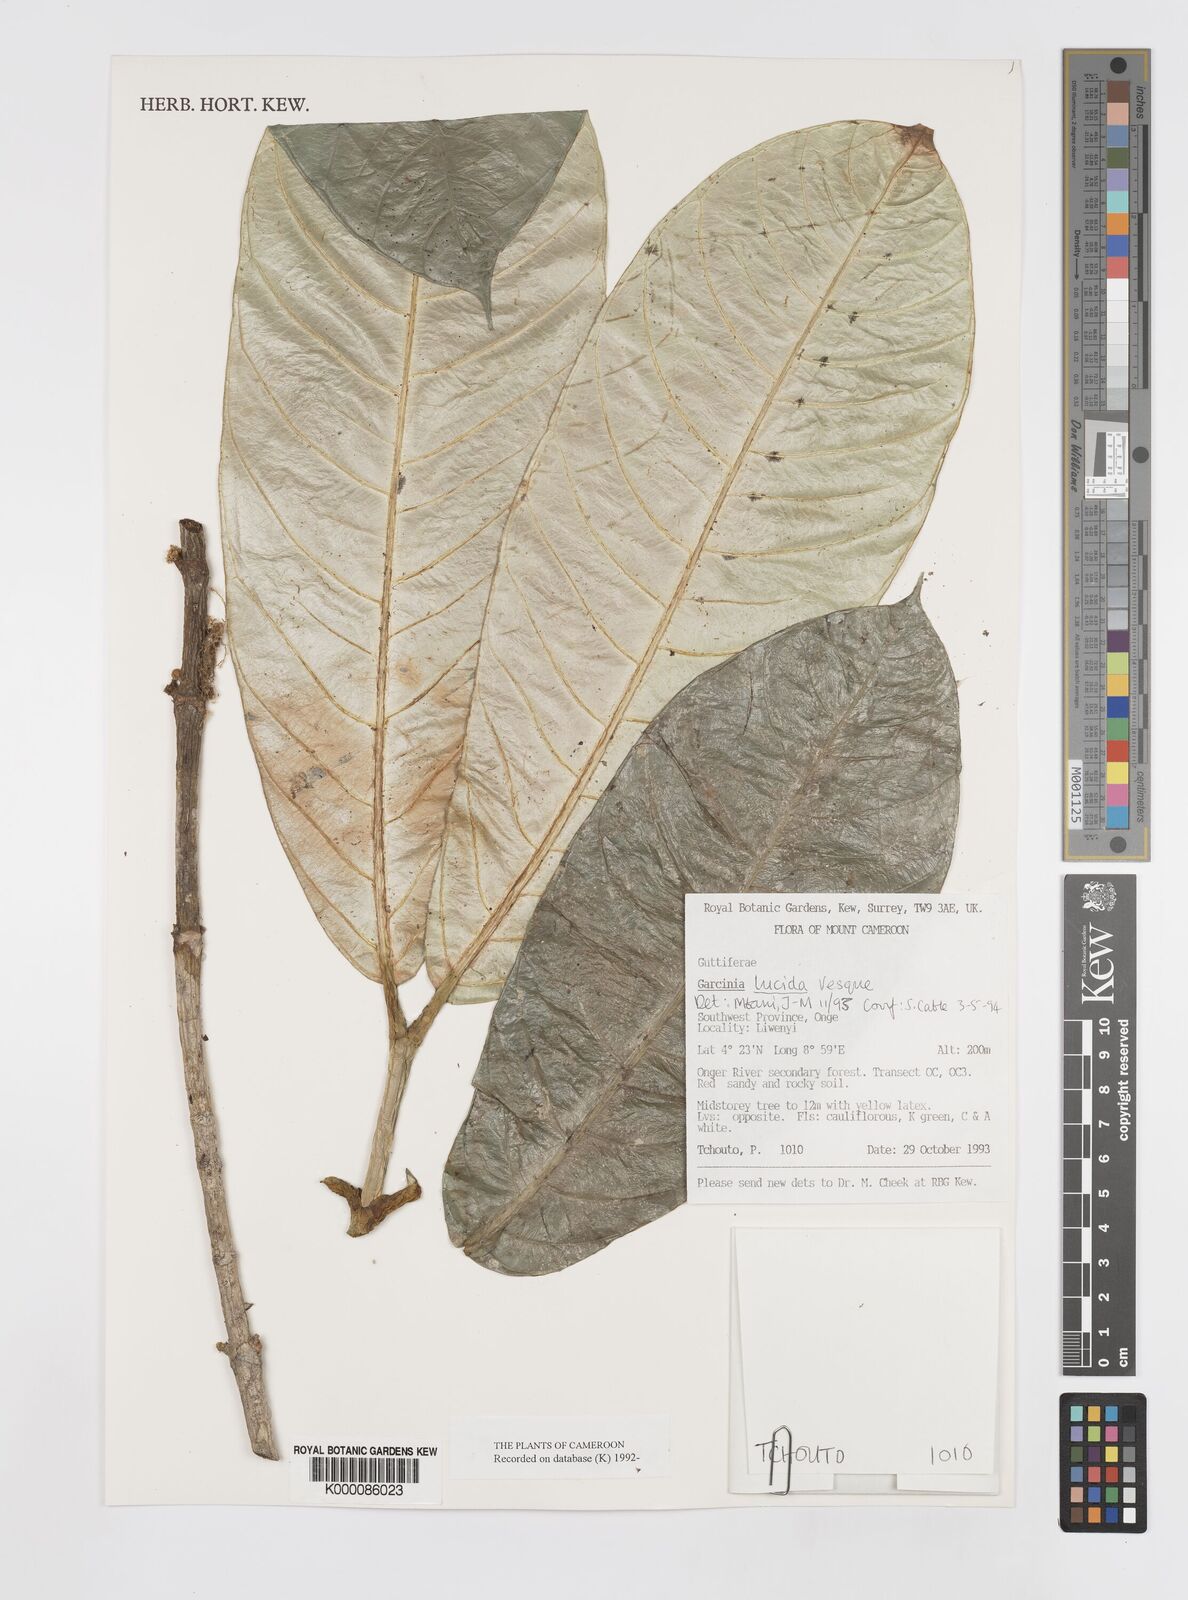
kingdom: Plantae
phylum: Tracheophyta
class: Magnoliopsida
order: Malpighiales
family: Clusiaceae
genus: Garcinia
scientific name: Garcinia lucida
